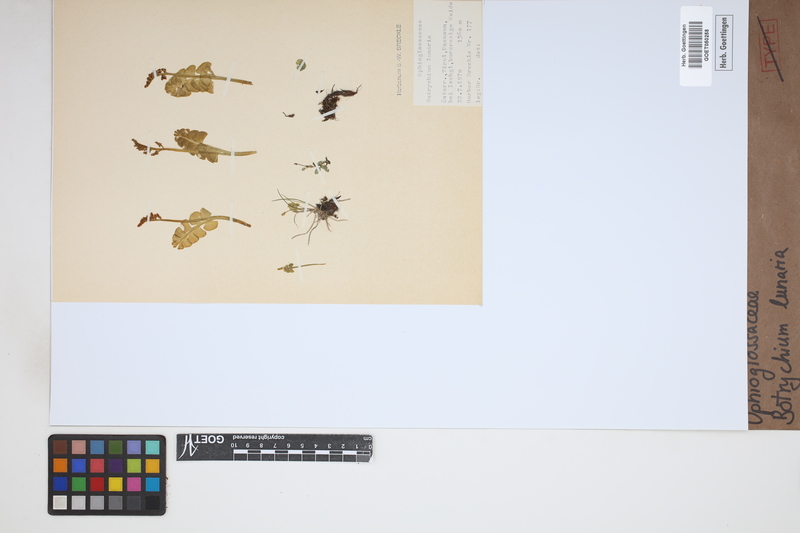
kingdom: Plantae
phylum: Tracheophyta
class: Polypodiopsida
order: Ophioglossales
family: Ophioglossaceae
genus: Botrychium
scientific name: Botrychium lunaria
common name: Moonwort
